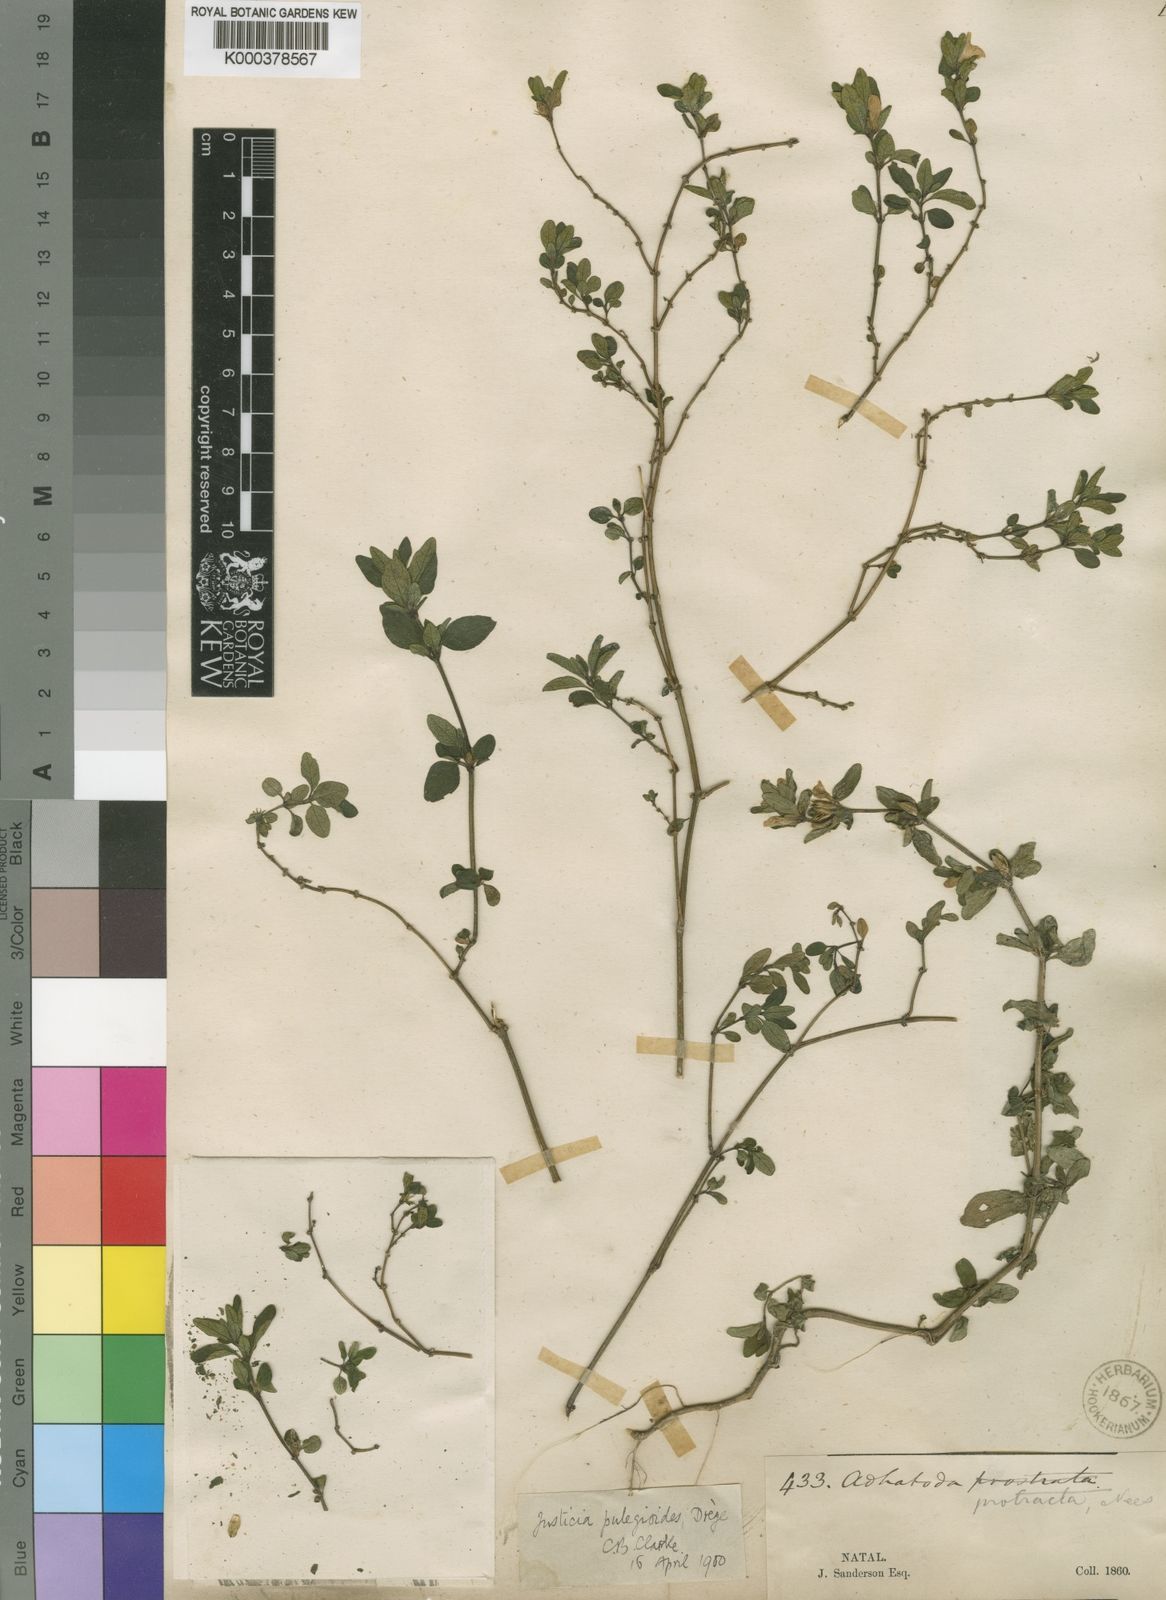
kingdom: Plantae
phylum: Tracheophyta
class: Magnoliopsida
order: Lamiales
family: Acanthaceae
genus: Justicia
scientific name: Justicia protracta
